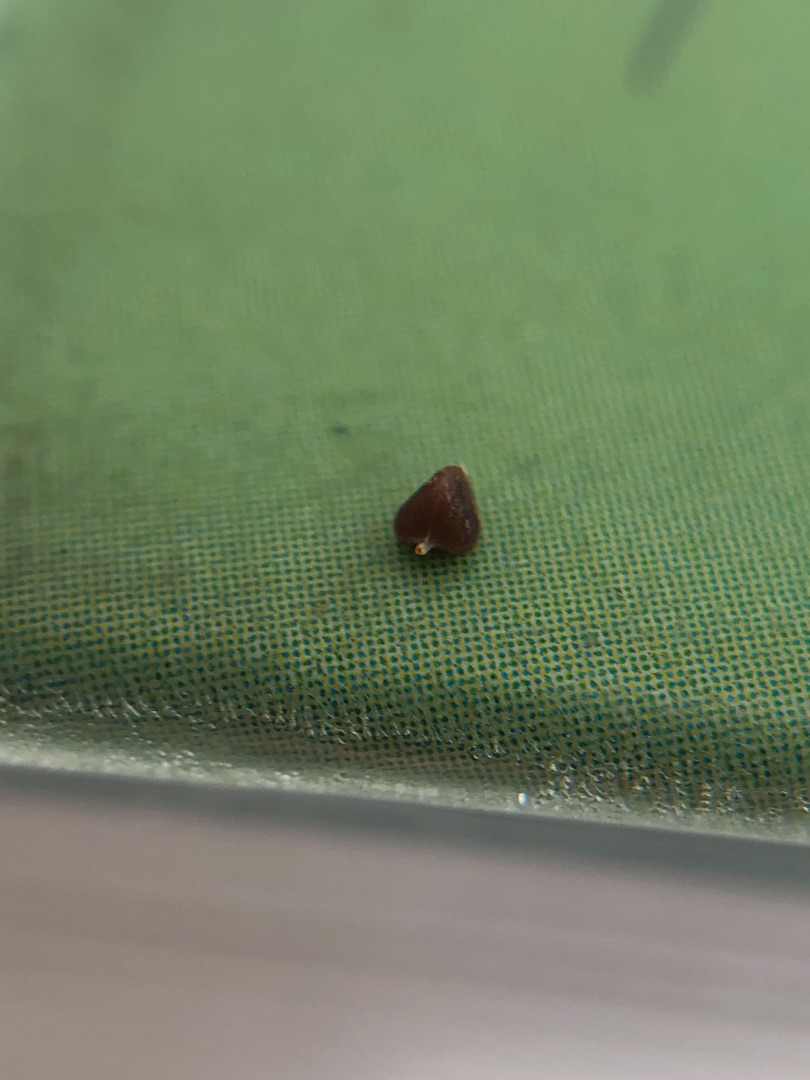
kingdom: Plantae
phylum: Tracheophyta
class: Liliopsida
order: Poales
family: Cyperaceae
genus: Carex
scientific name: Carex flacca
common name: Blågrøn star
